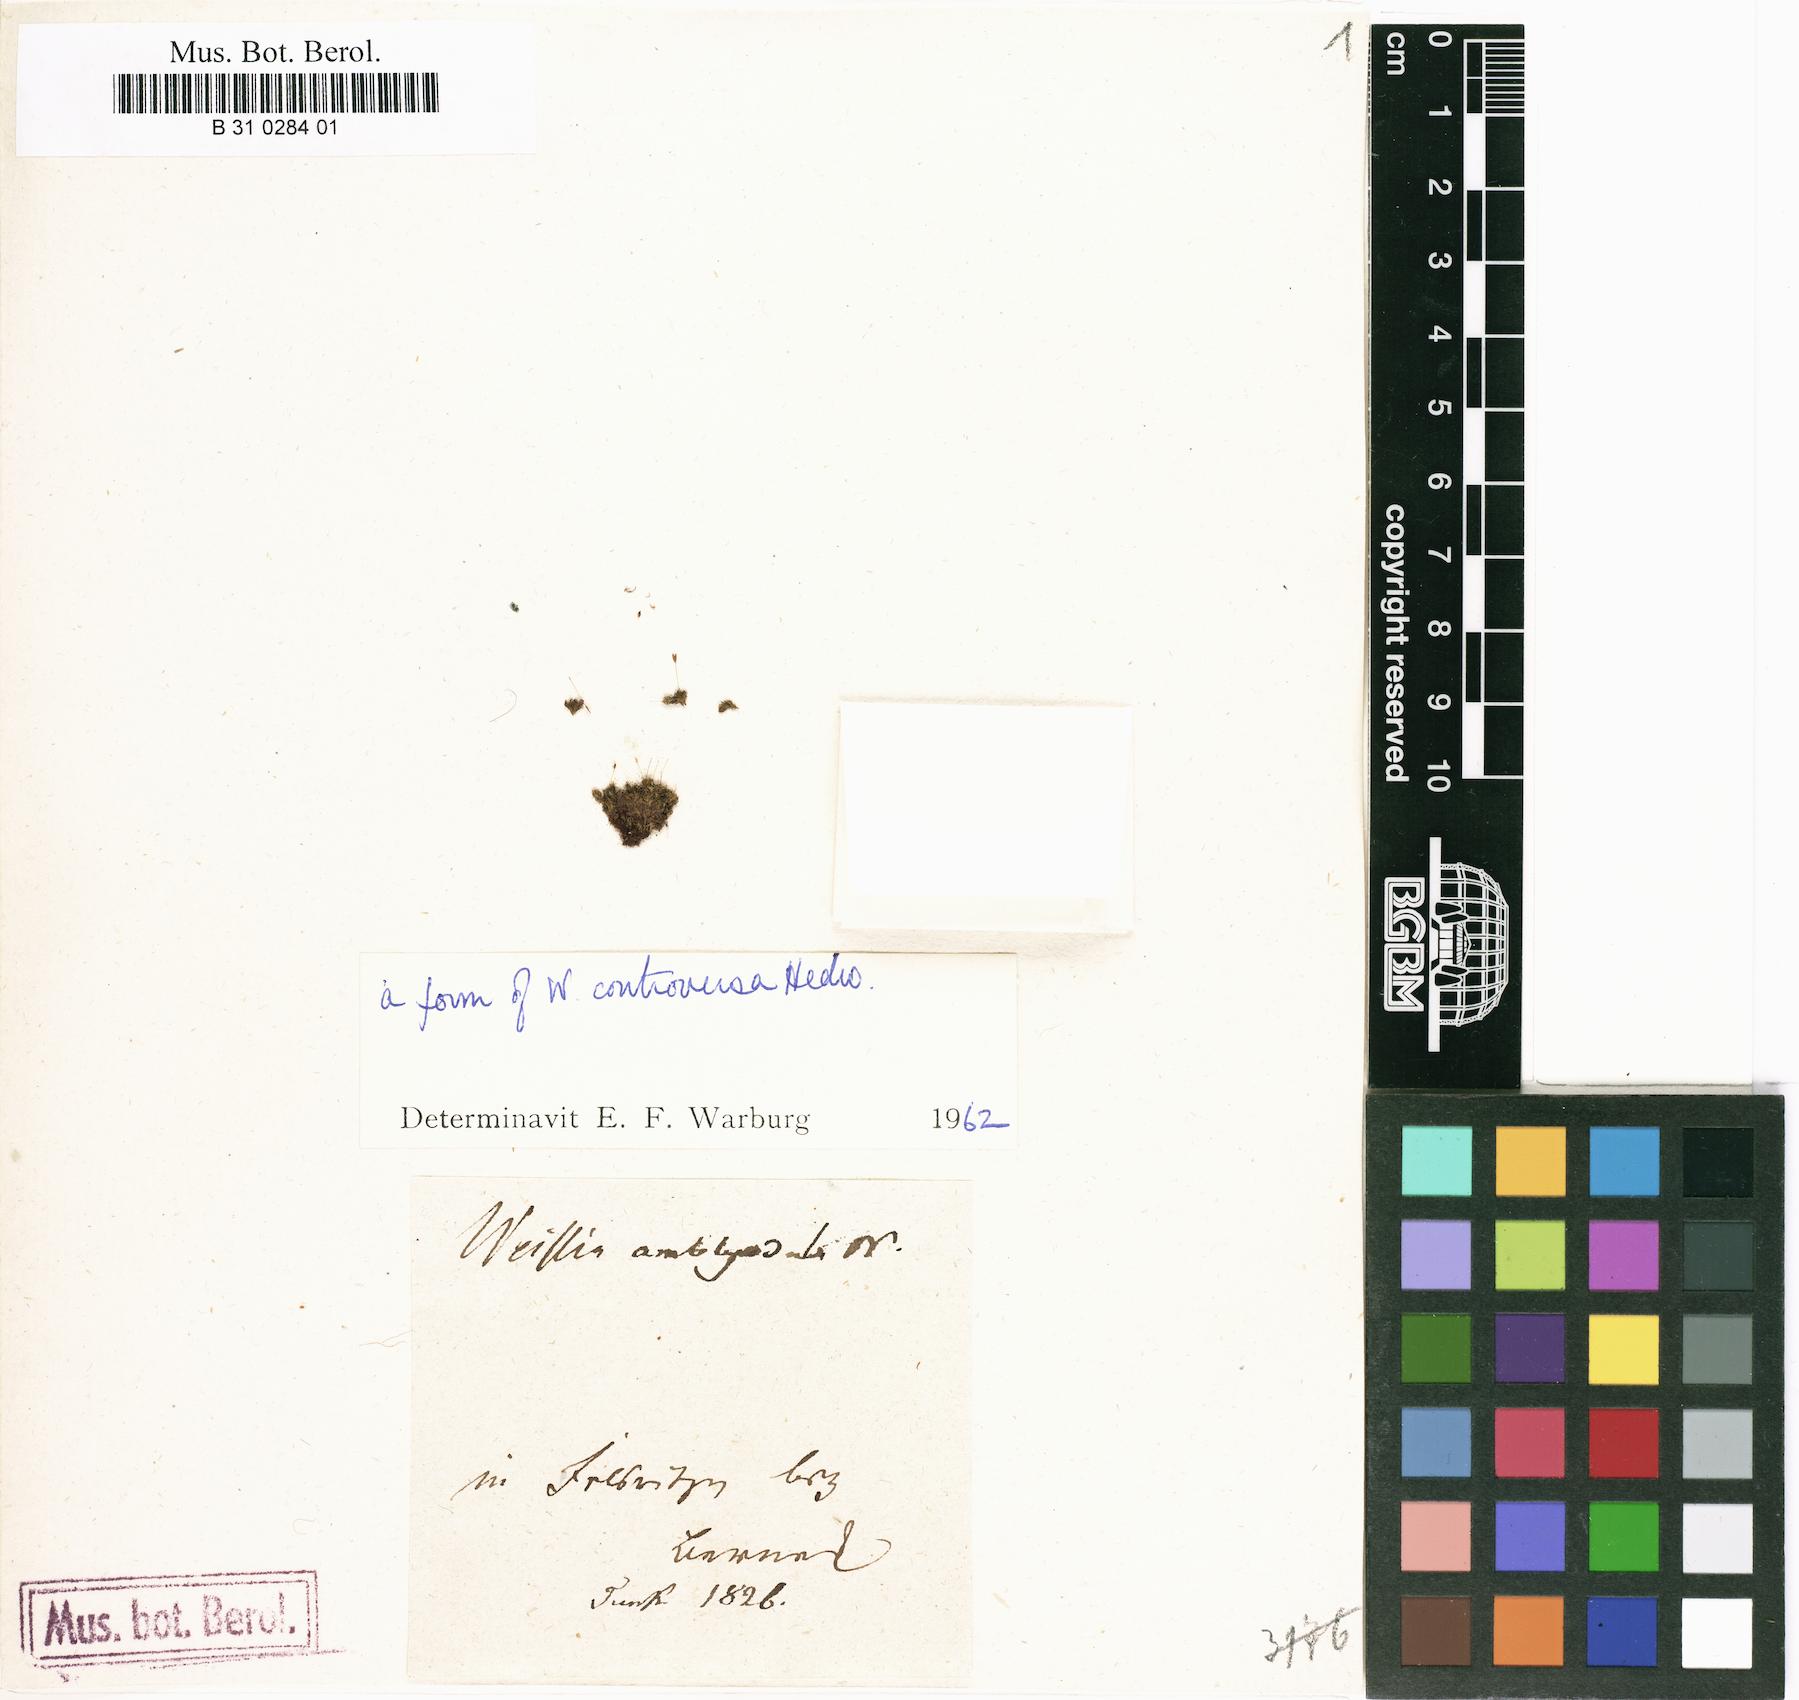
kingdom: Plantae
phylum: Bryophyta
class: Bryopsida
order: Pottiales
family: Pottiaceae
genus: Weissia
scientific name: Weissia controversa
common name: Green-tufted stubble moss
